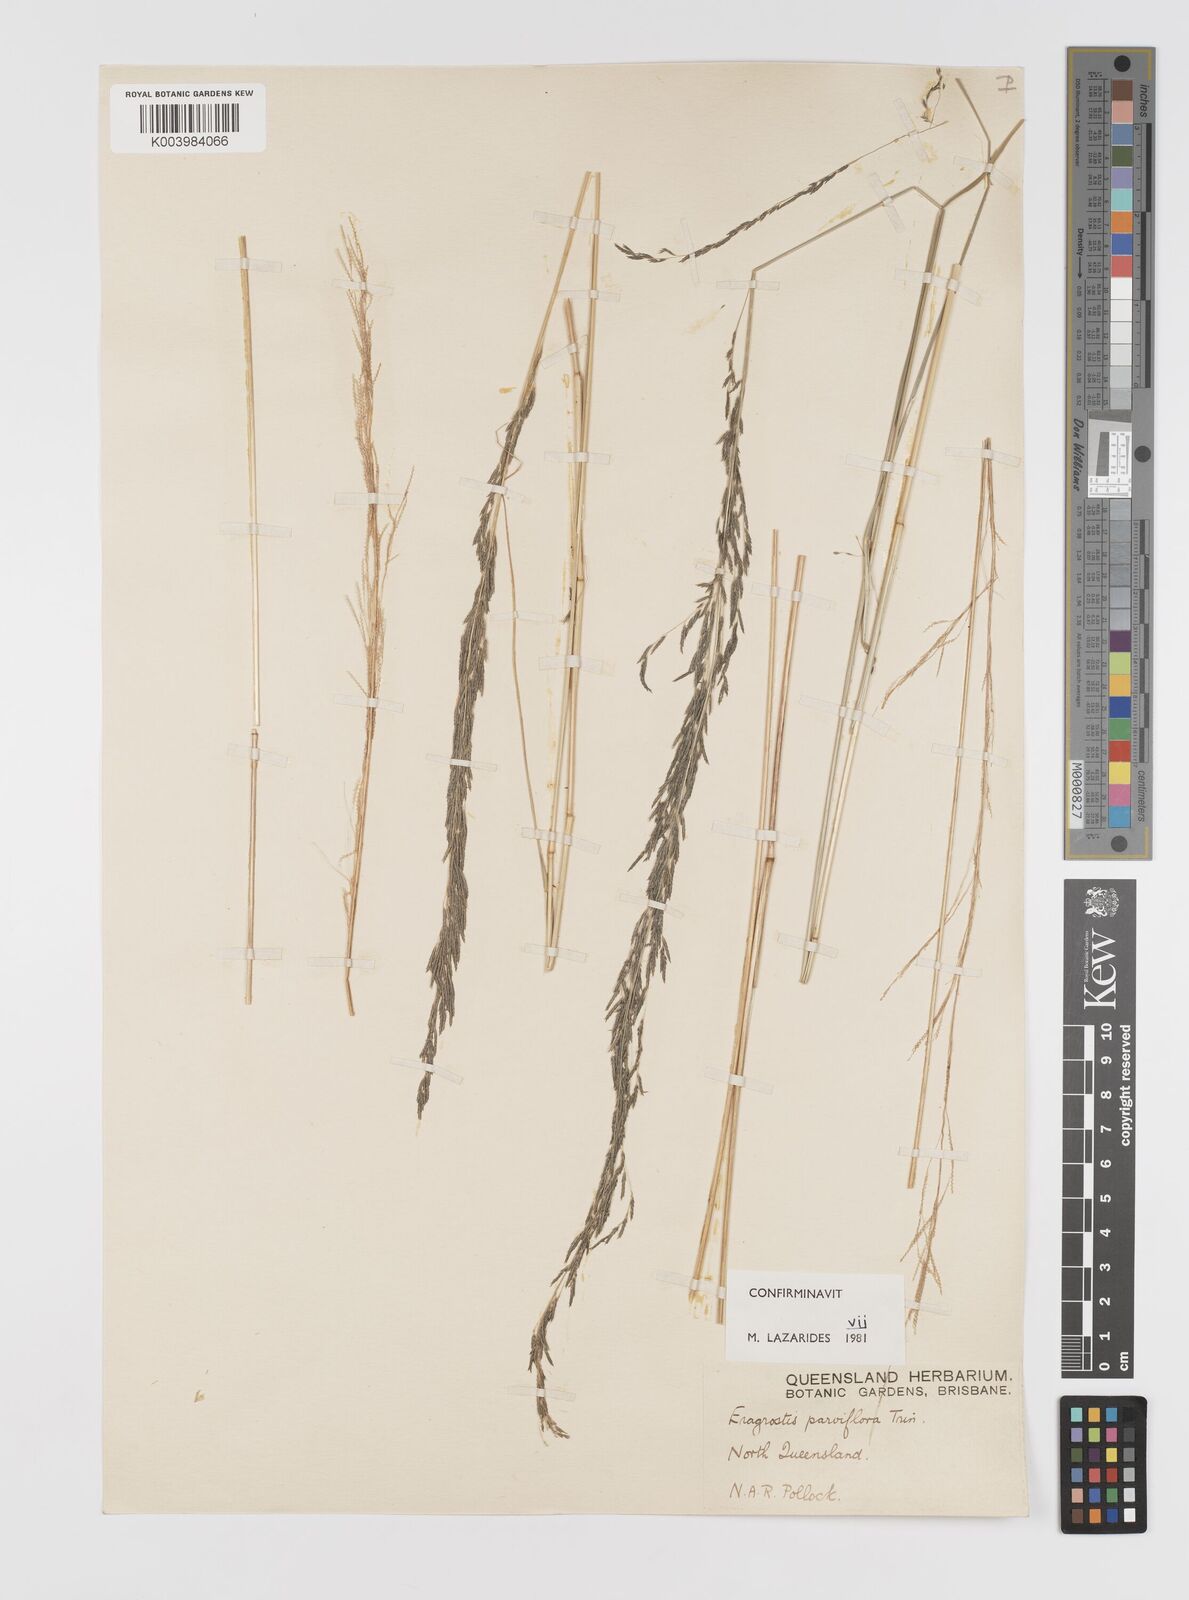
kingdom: Plantae
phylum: Tracheophyta
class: Liliopsida
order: Poales
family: Poaceae
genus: Eragrostis
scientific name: Eragrostis parviflora
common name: Weeping love-grass
